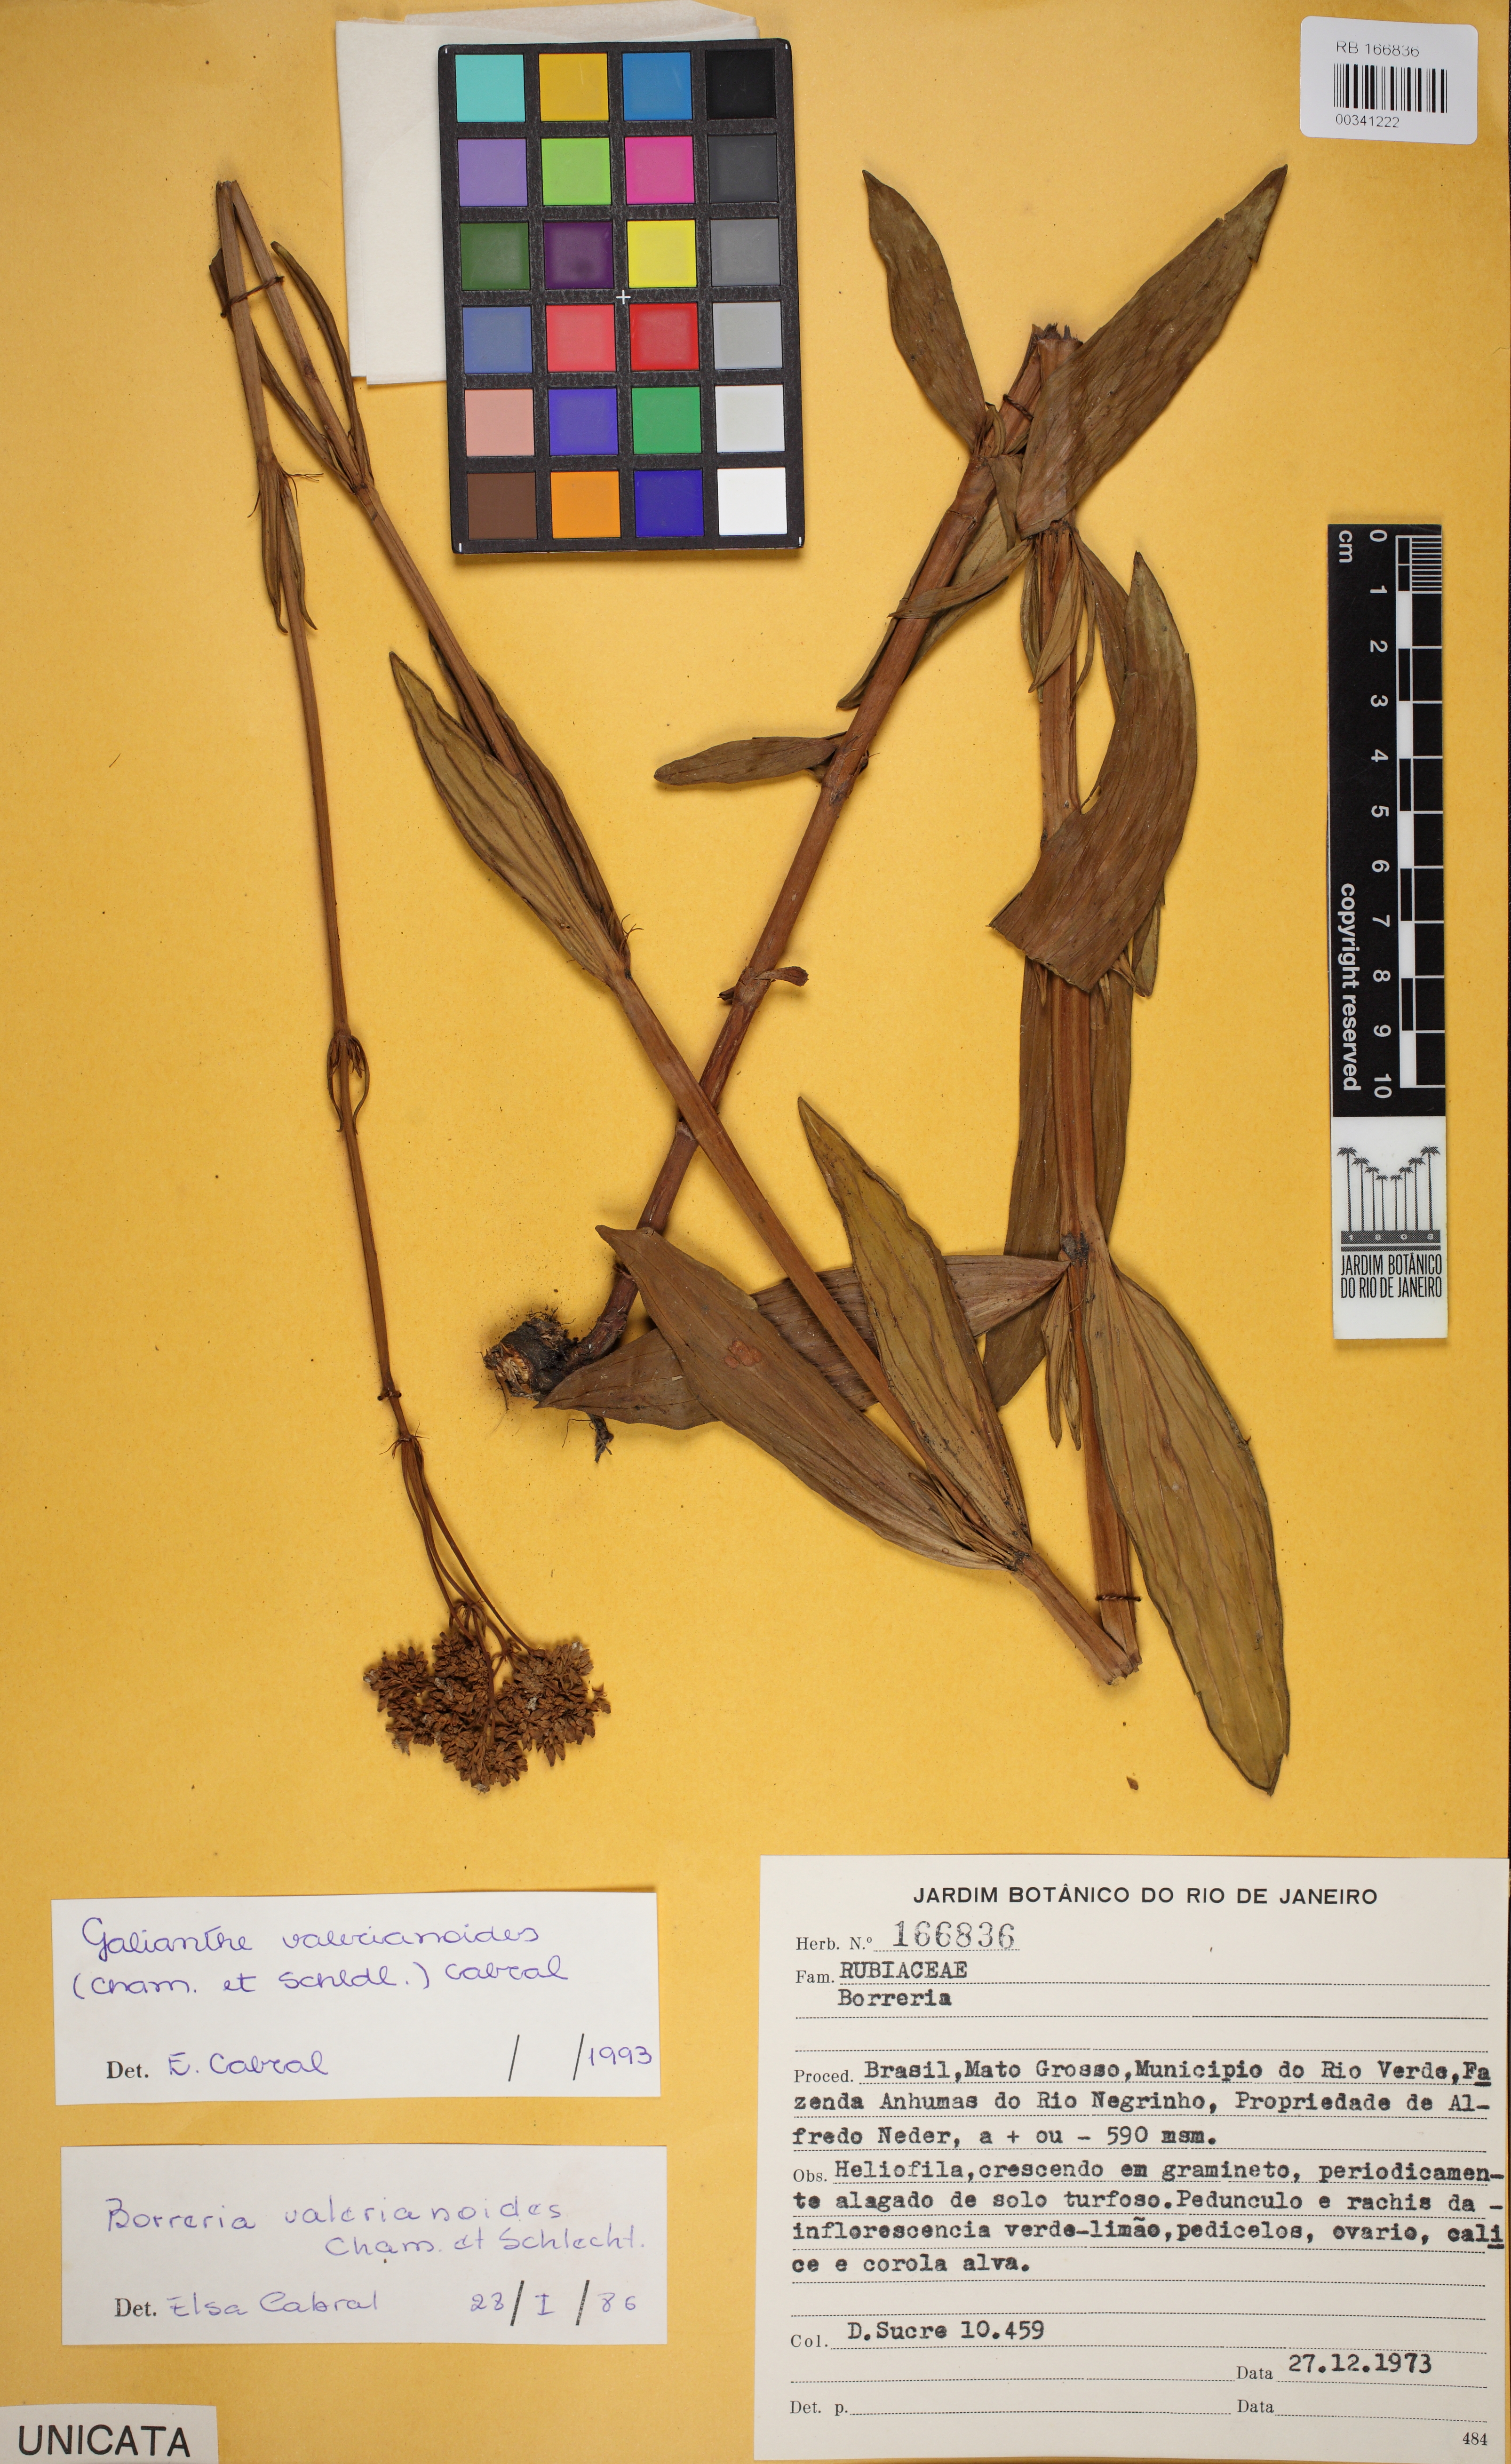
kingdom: Plantae
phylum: Tracheophyta
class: Magnoliopsida
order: Gentianales
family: Rubiaceae
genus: Galianthe
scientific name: Galianthe macedoi
